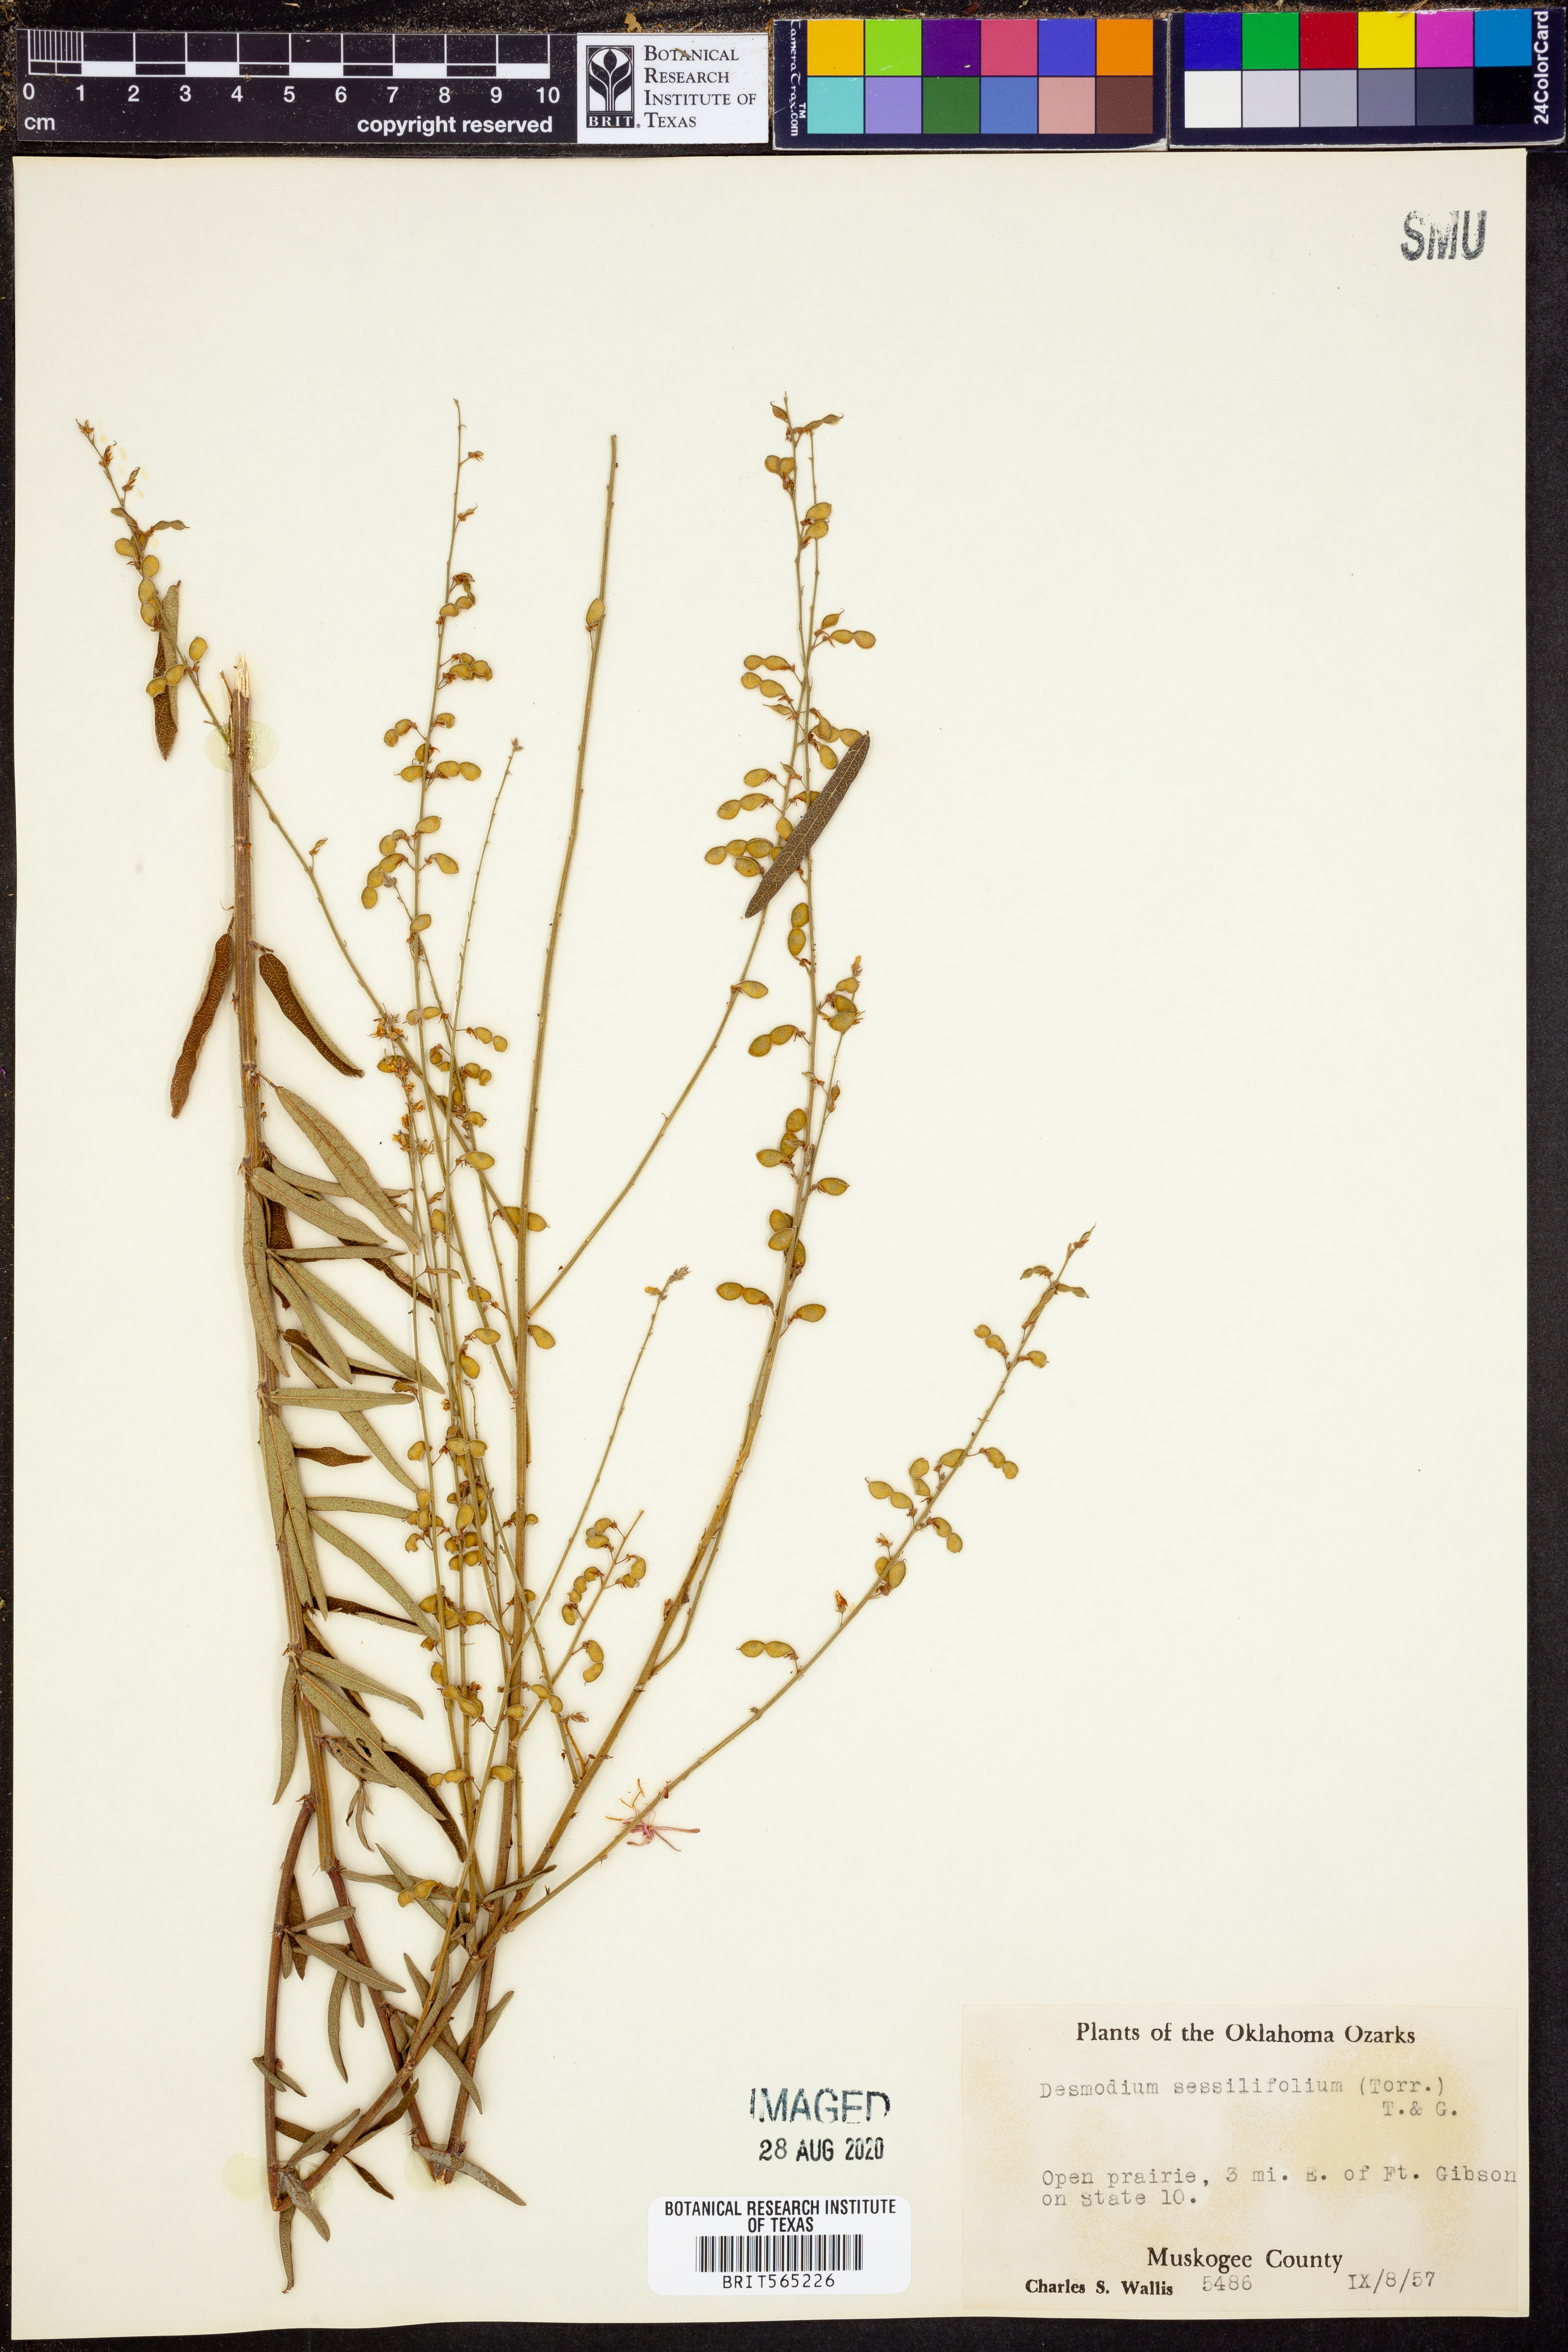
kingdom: Plantae
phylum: Tracheophyta
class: Magnoliopsida
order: Fabales
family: Fabaceae
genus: Desmodium
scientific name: Desmodium sessilifolium
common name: Sessile tick-clover
